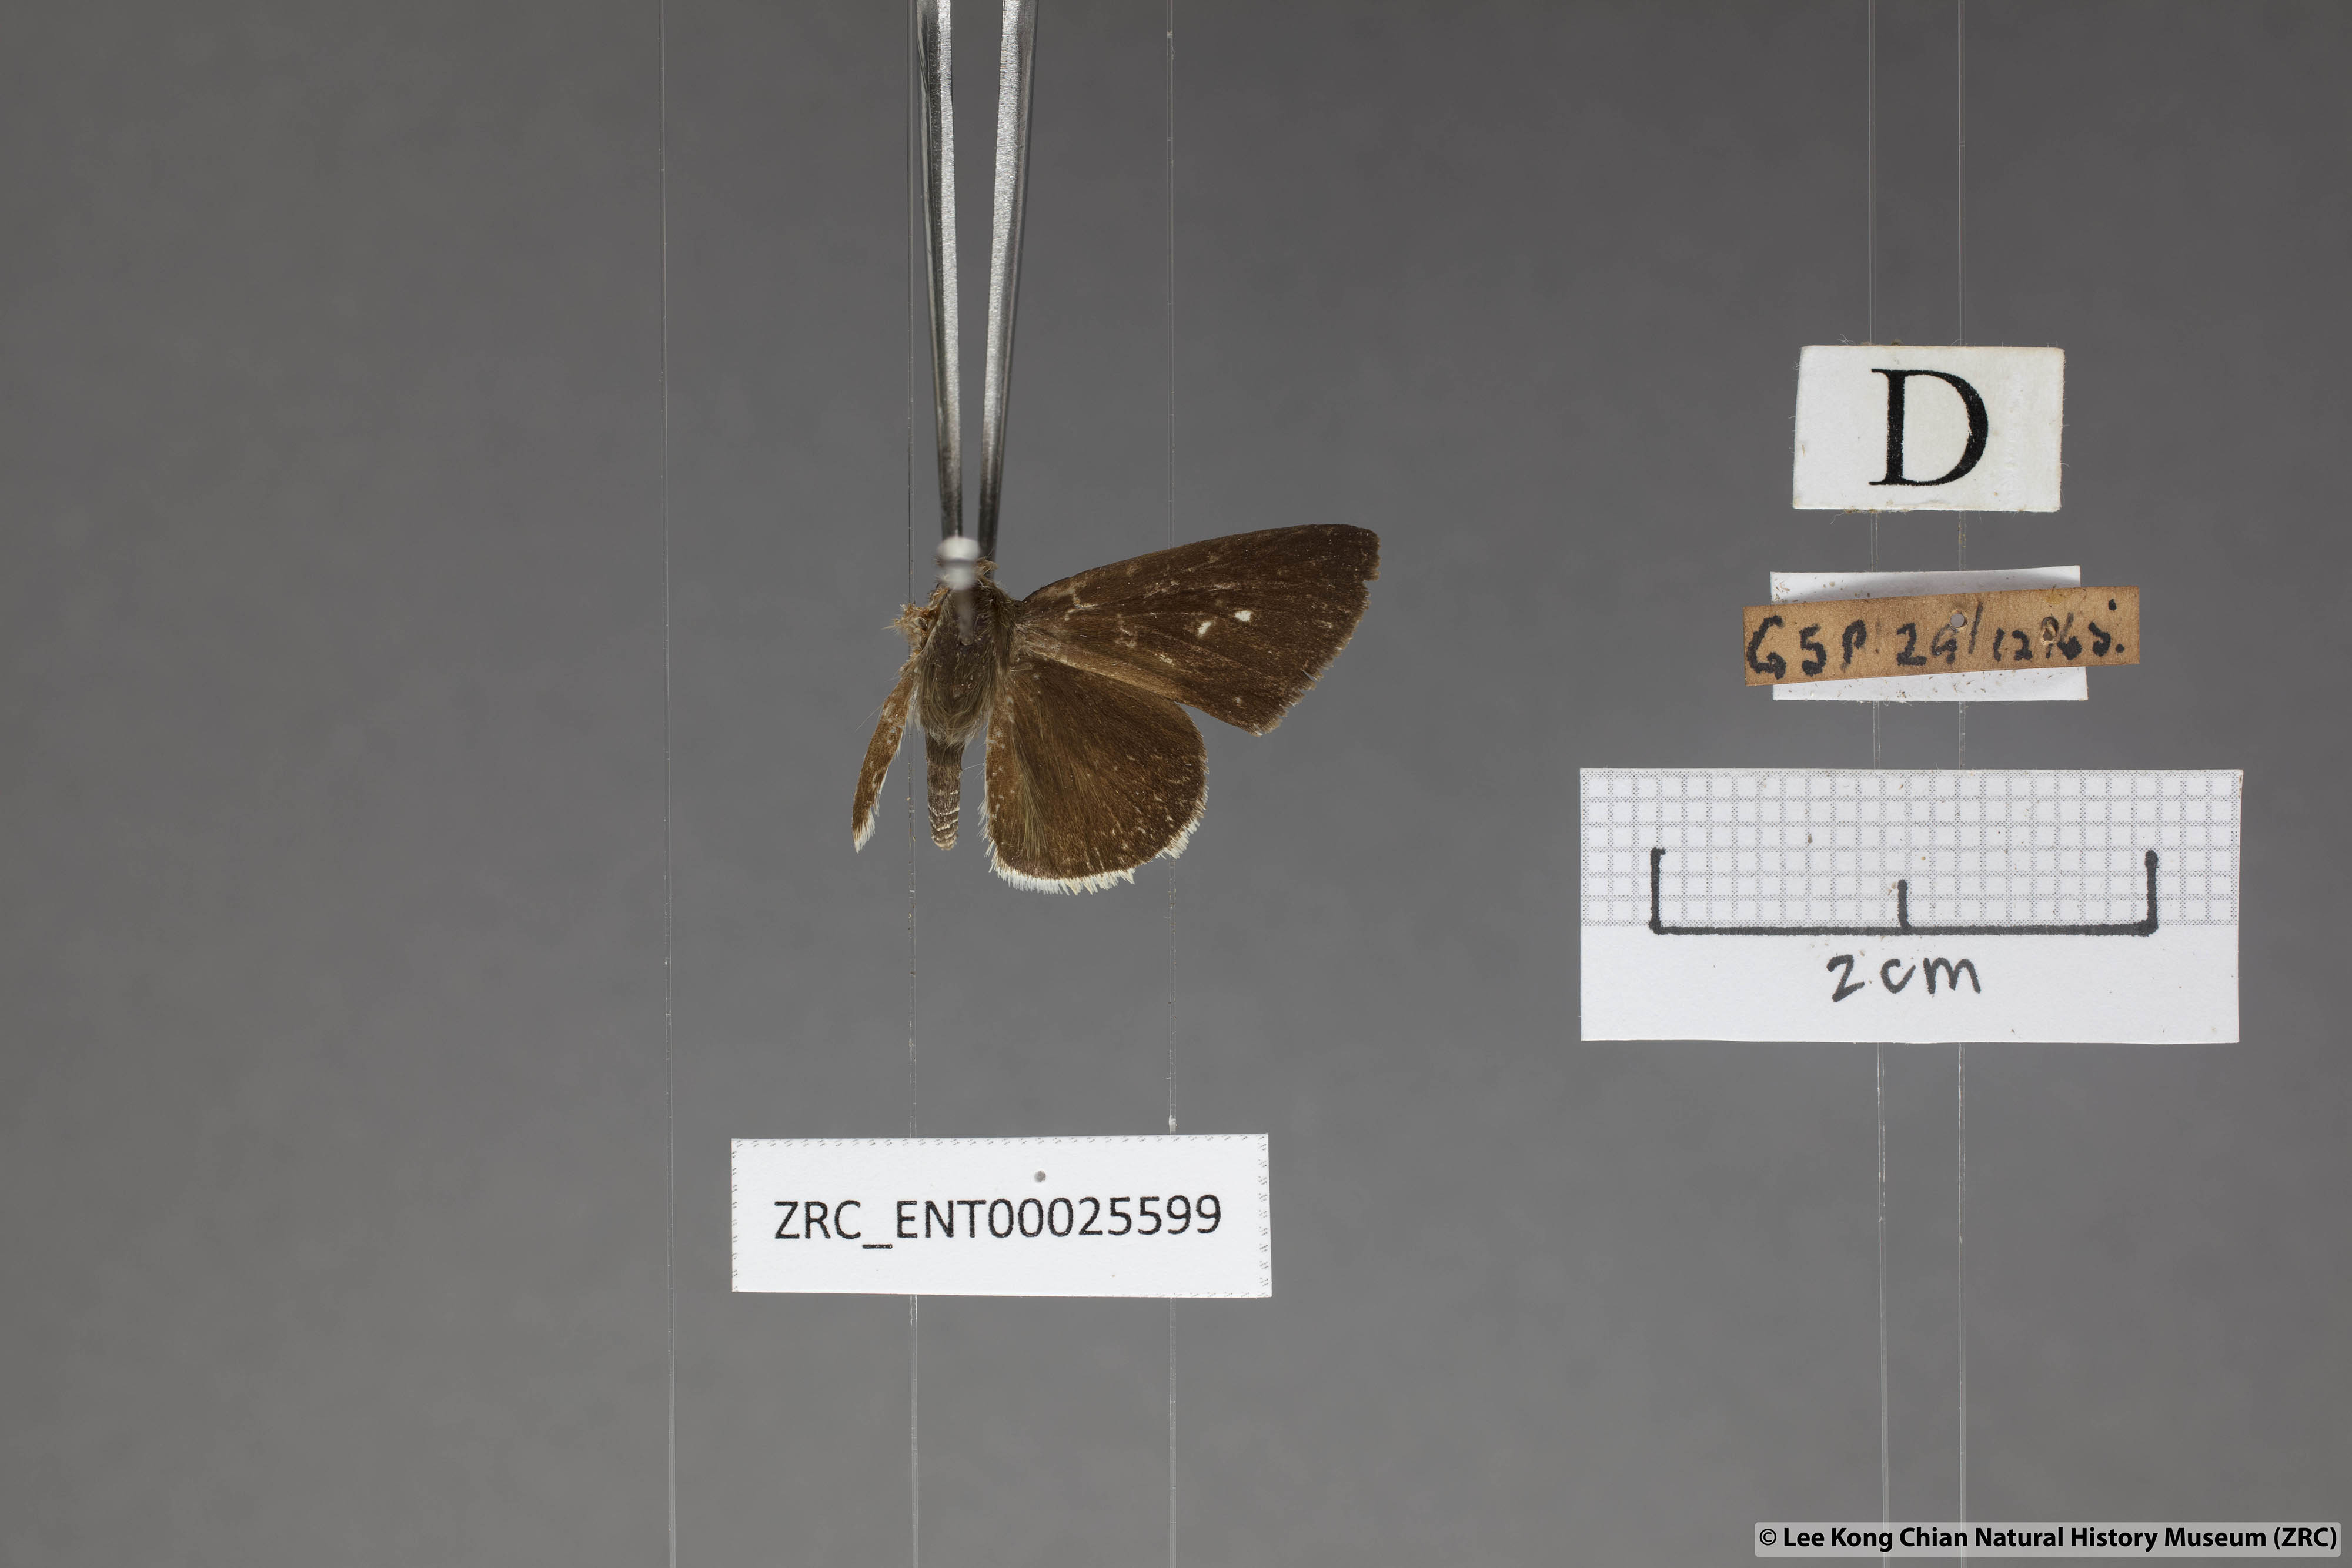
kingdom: Animalia
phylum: Arthropoda
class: Insecta
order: Lepidoptera
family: Hesperiidae
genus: Suastus
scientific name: Suastus minuta
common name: Small palm bob
